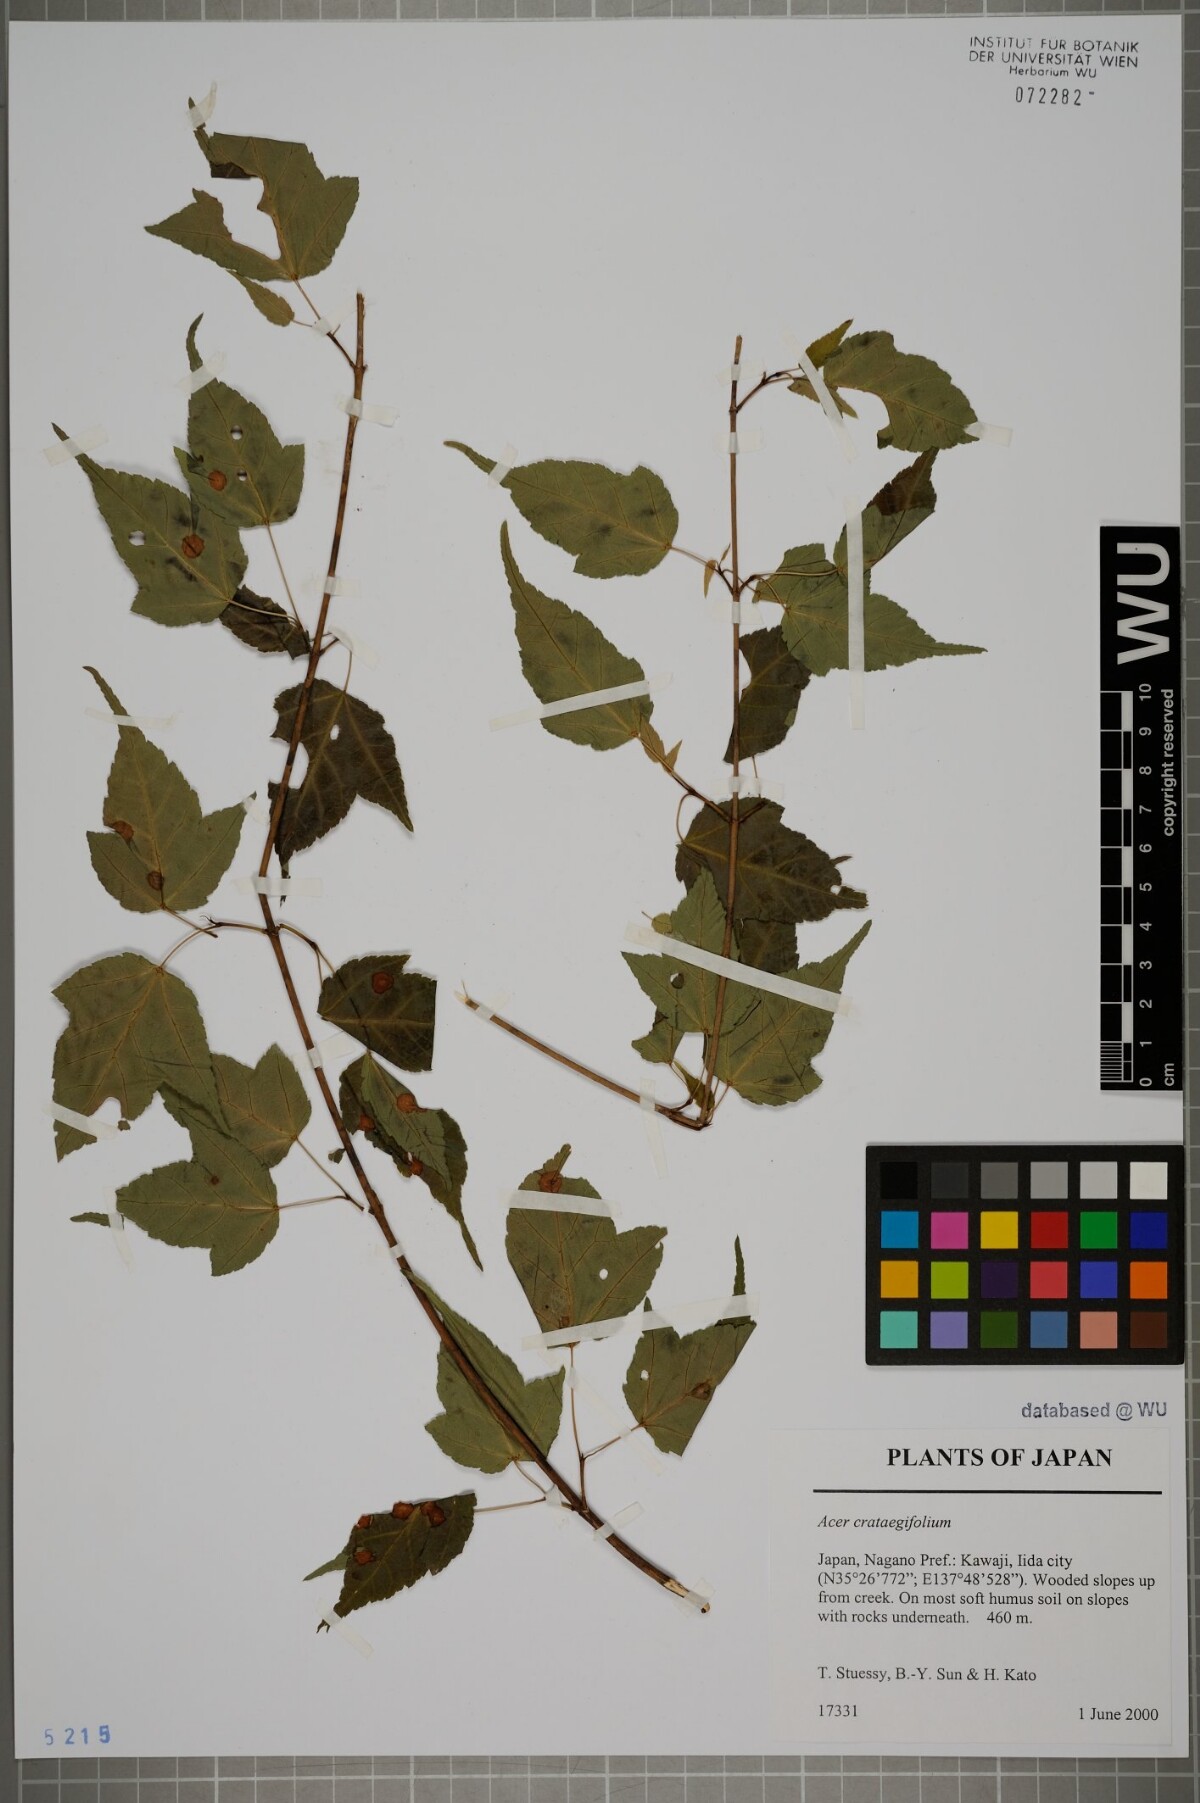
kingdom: Plantae
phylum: Tracheophyta
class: Magnoliopsida
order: Sapindales
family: Sapindaceae
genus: Acer
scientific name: Acer crataegifolium
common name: Hawthorn-leaf maple
